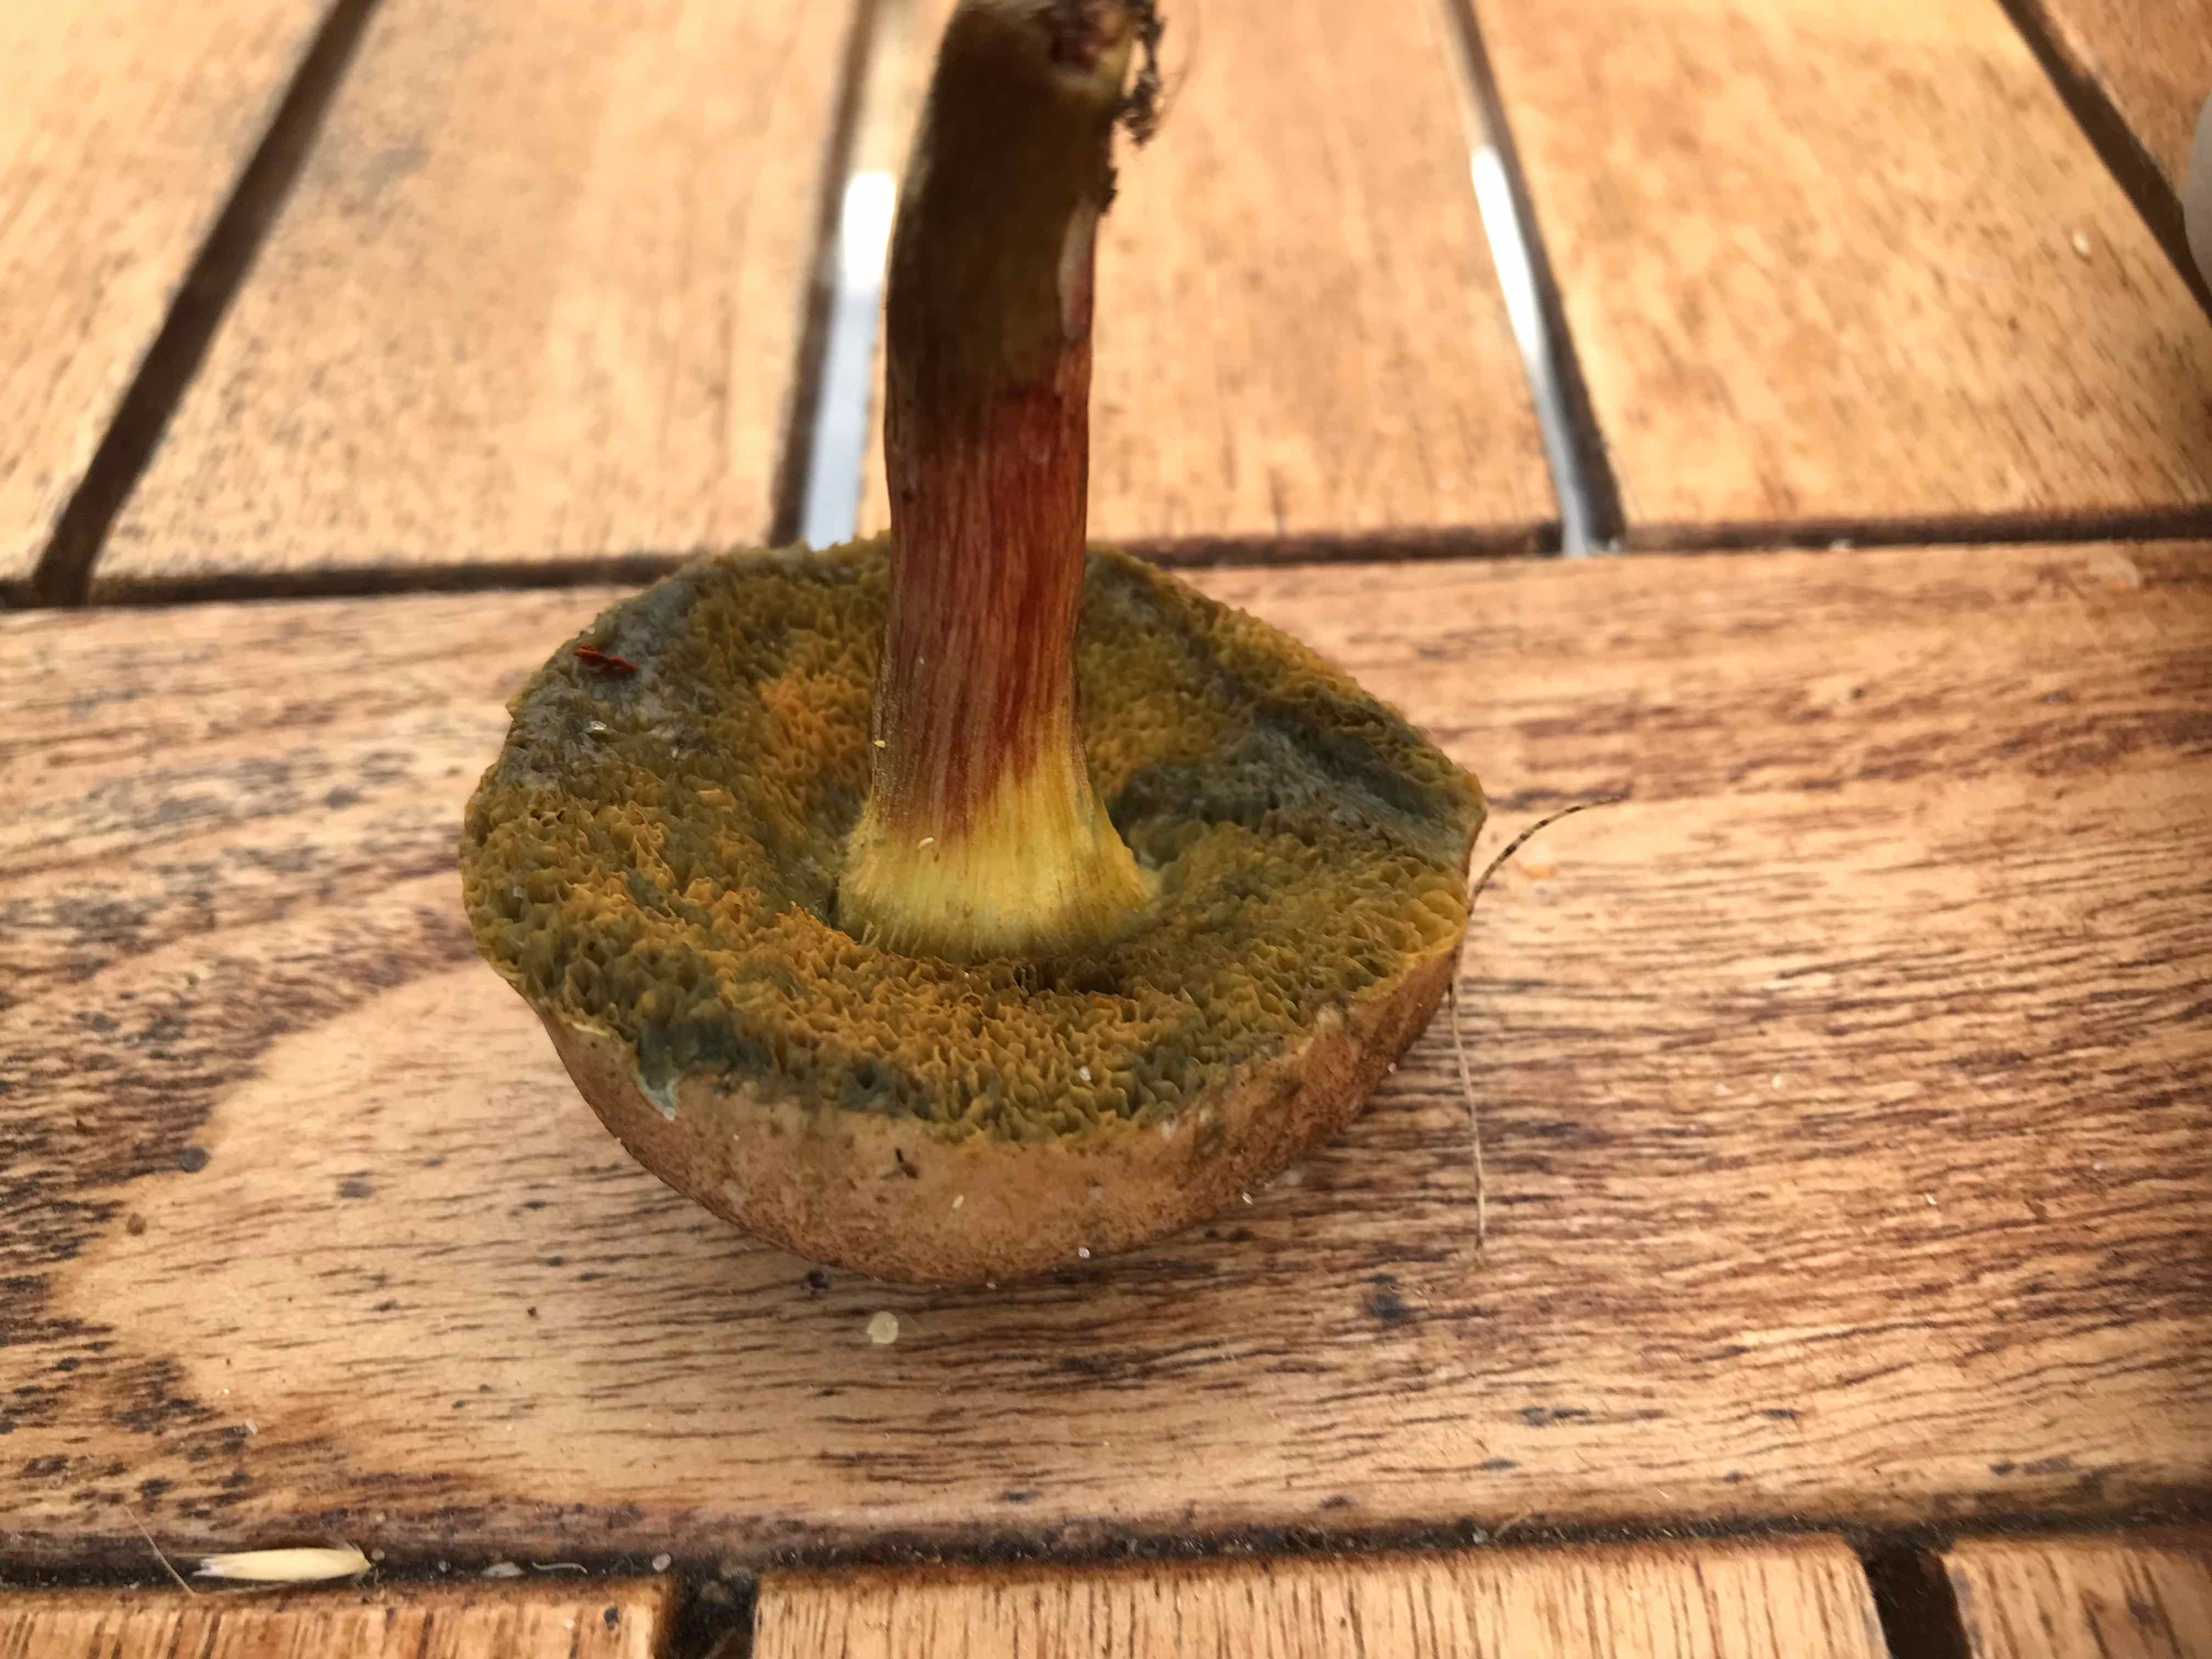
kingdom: Fungi
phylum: Basidiomycota
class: Agaricomycetes
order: Boletales
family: Boletaceae
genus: Xerocomellus
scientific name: Xerocomellus
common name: dværgrørhat
